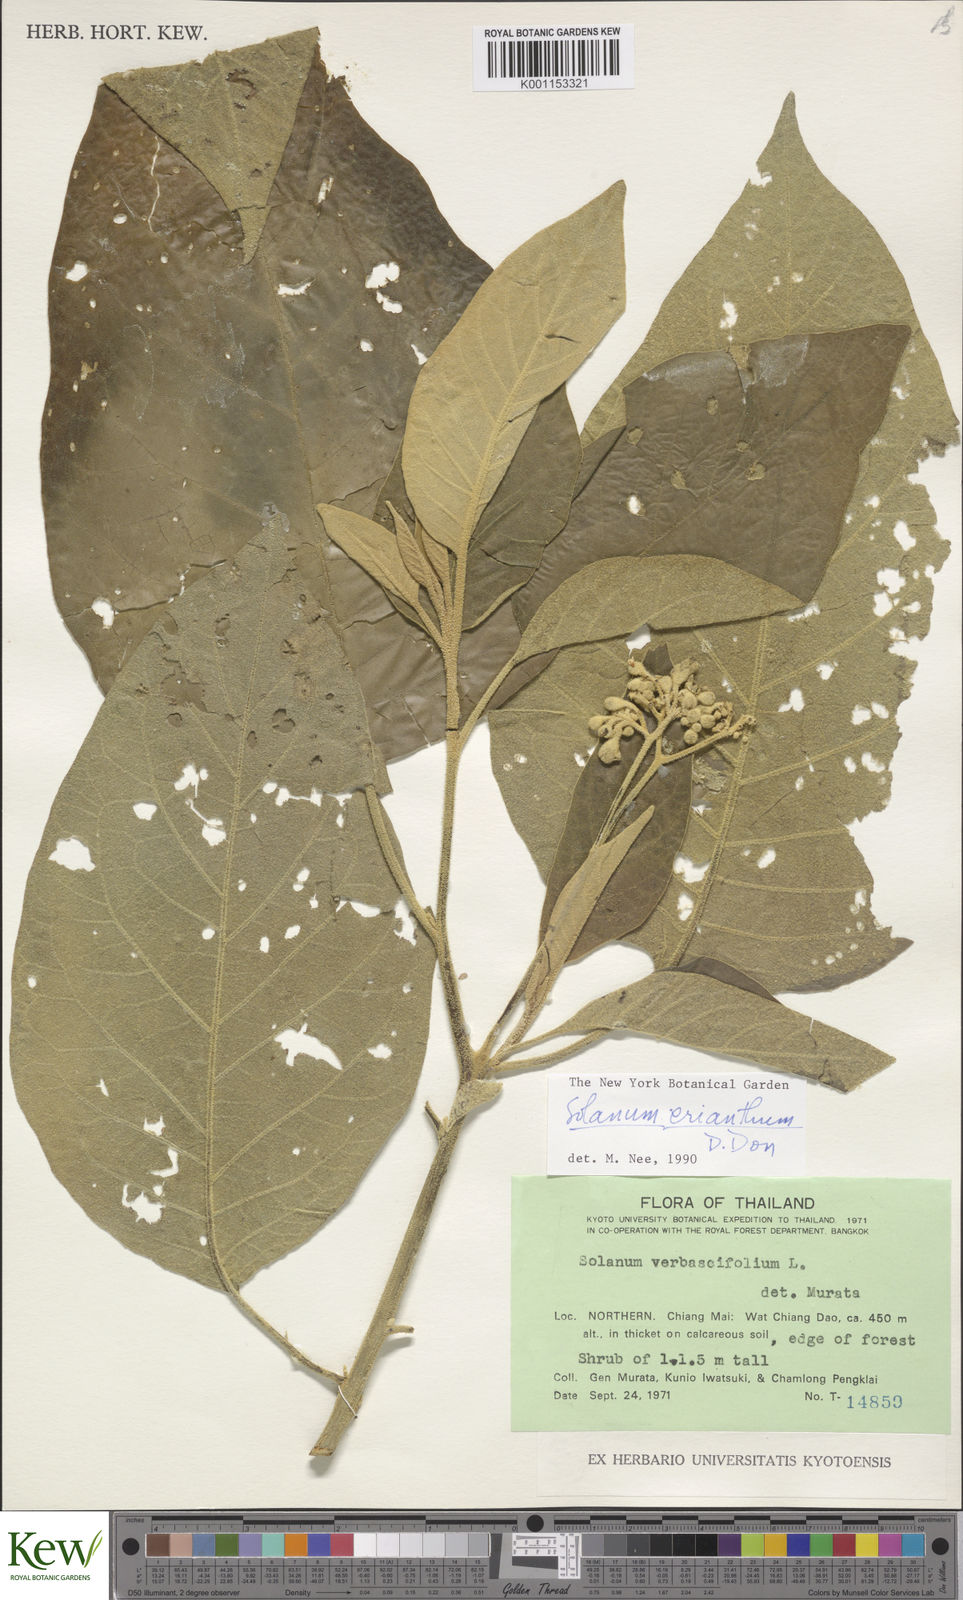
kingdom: Plantae
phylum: Tracheophyta
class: Magnoliopsida
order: Solanales
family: Solanaceae
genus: Solanum
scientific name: Solanum erianthum
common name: Tobacco-tree
